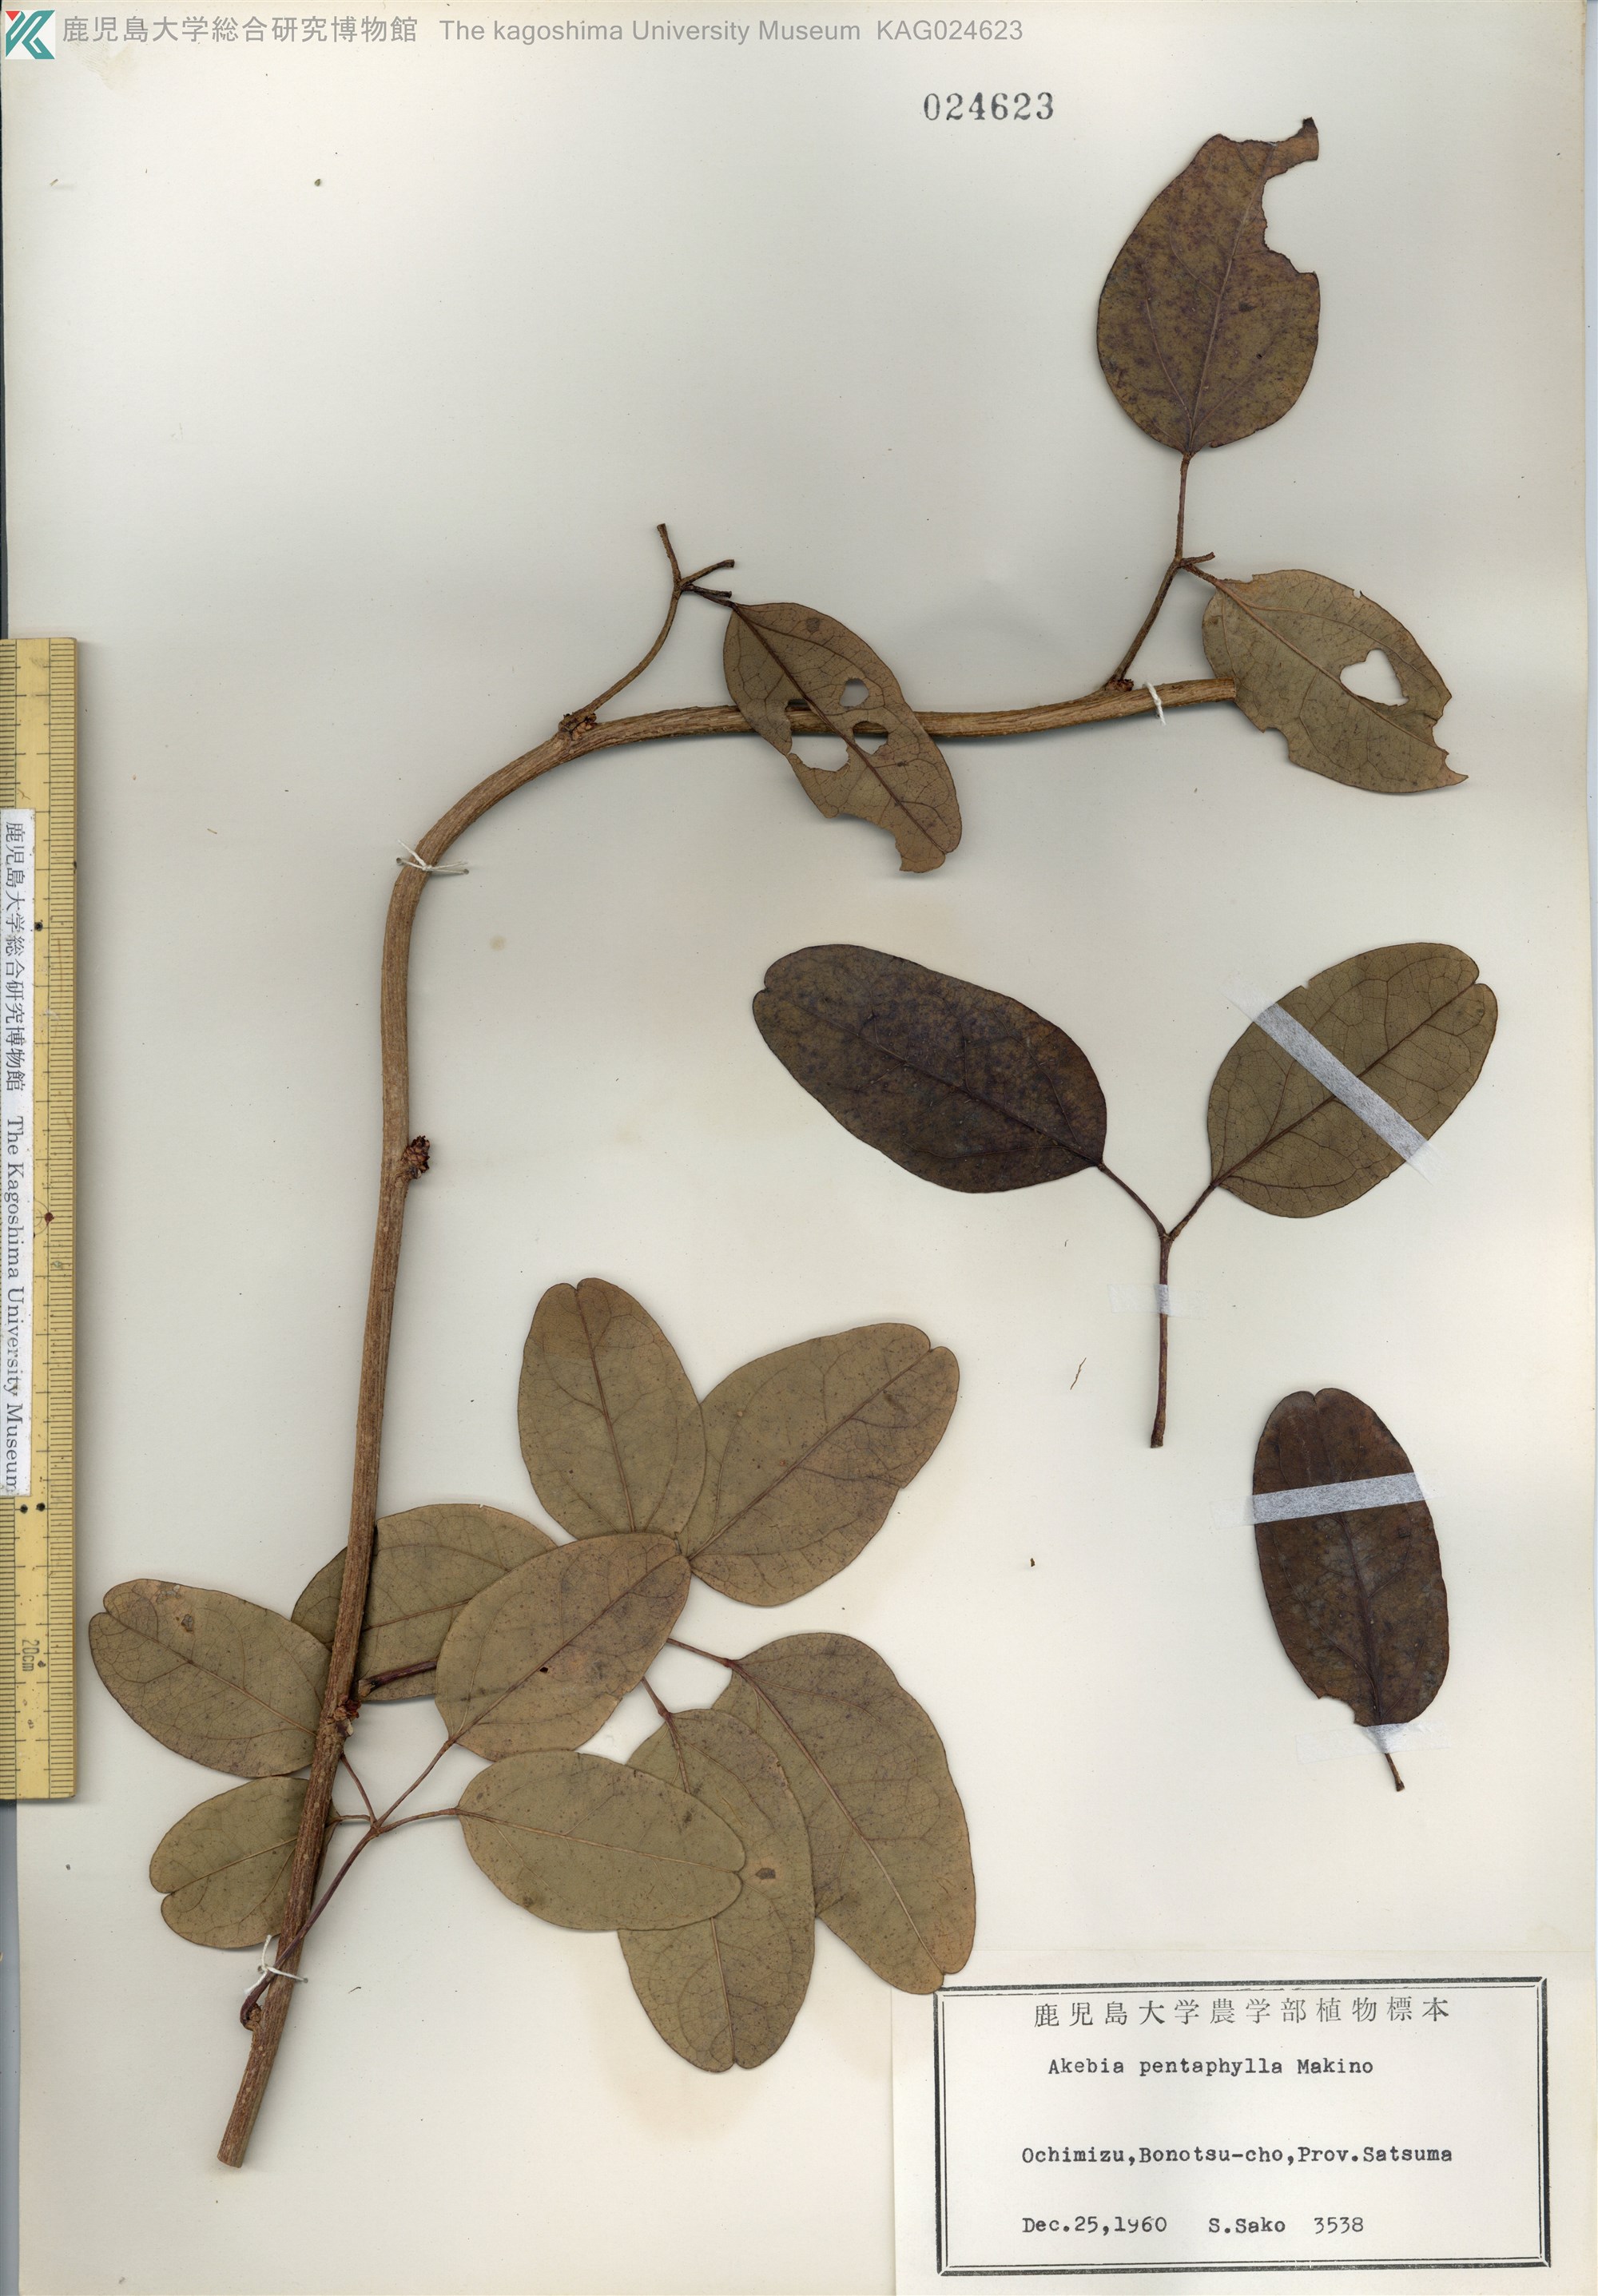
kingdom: Plantae
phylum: Tracheophyta
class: Magnoliopsida
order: Ranunculales
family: Lardizabalaceae
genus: Akebia
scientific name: Akebia pentaphylla
